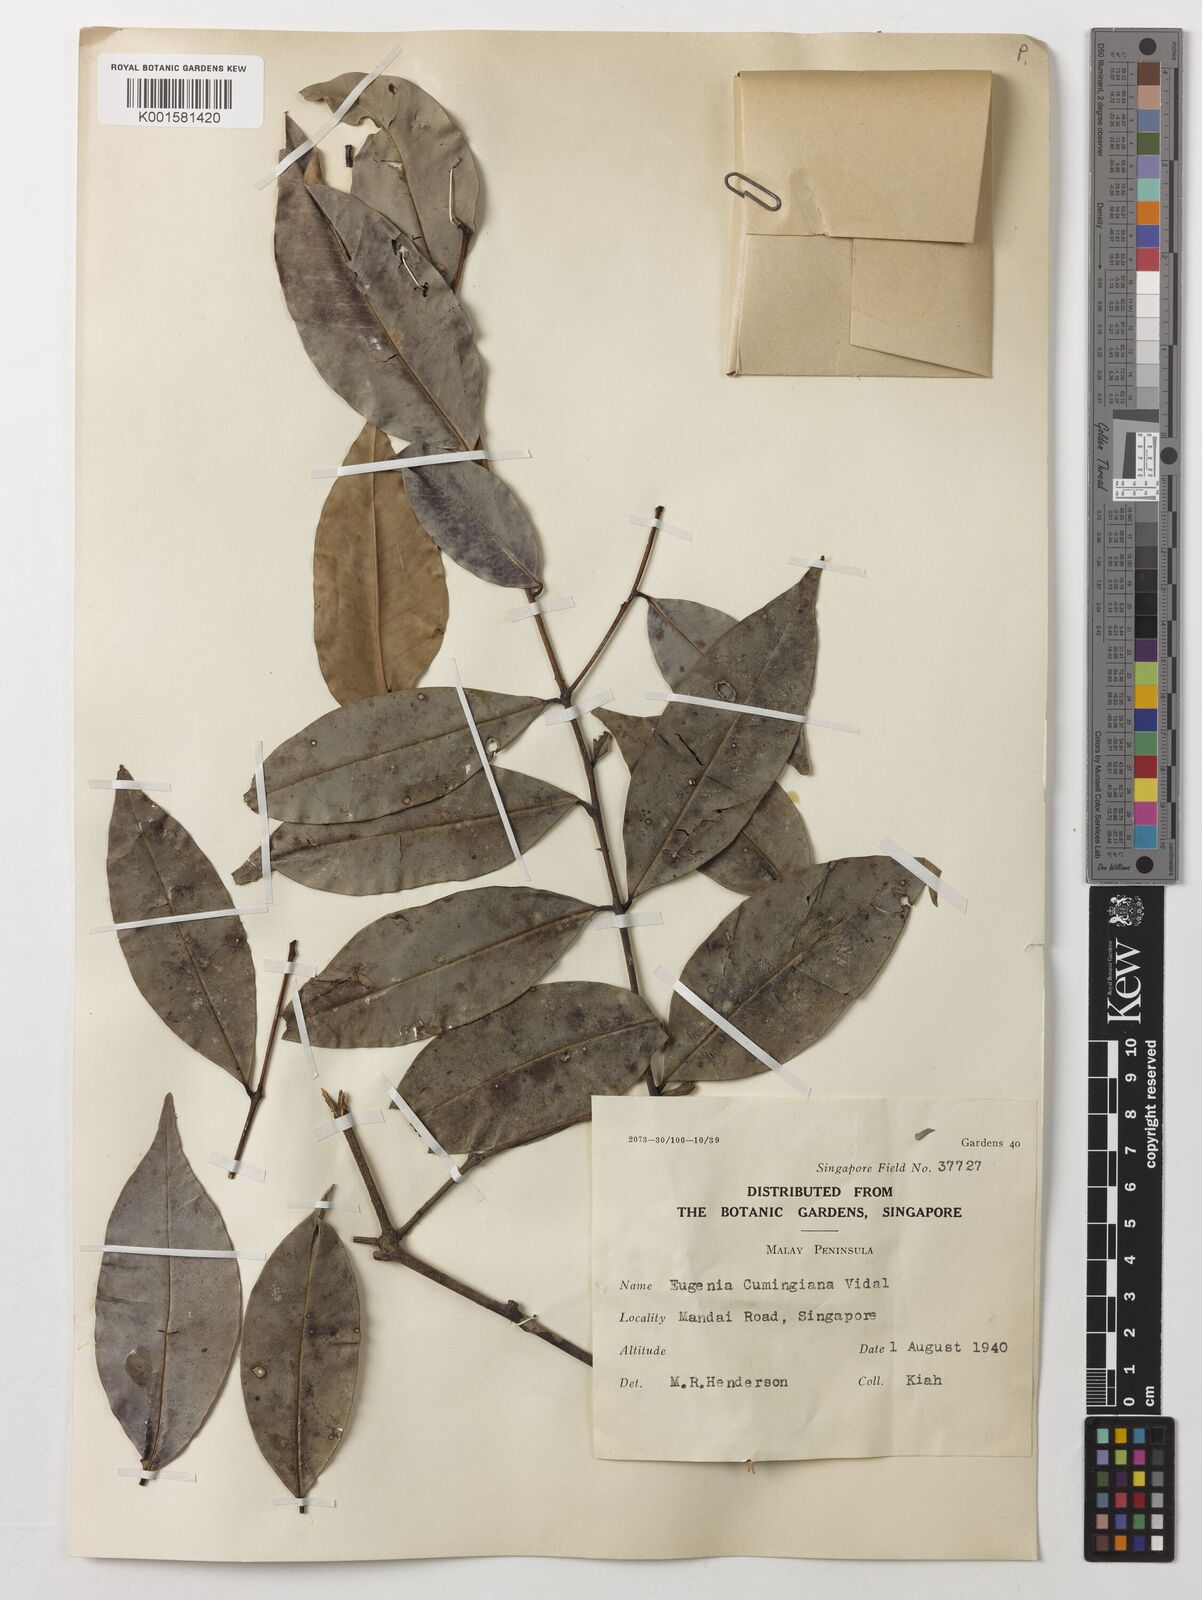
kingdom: Plantae
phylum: Tracheophyta
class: Magnoliopsida
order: Myrtales
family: Myrtaceae
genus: Syzygium
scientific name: Syzygium acuminatissimum
